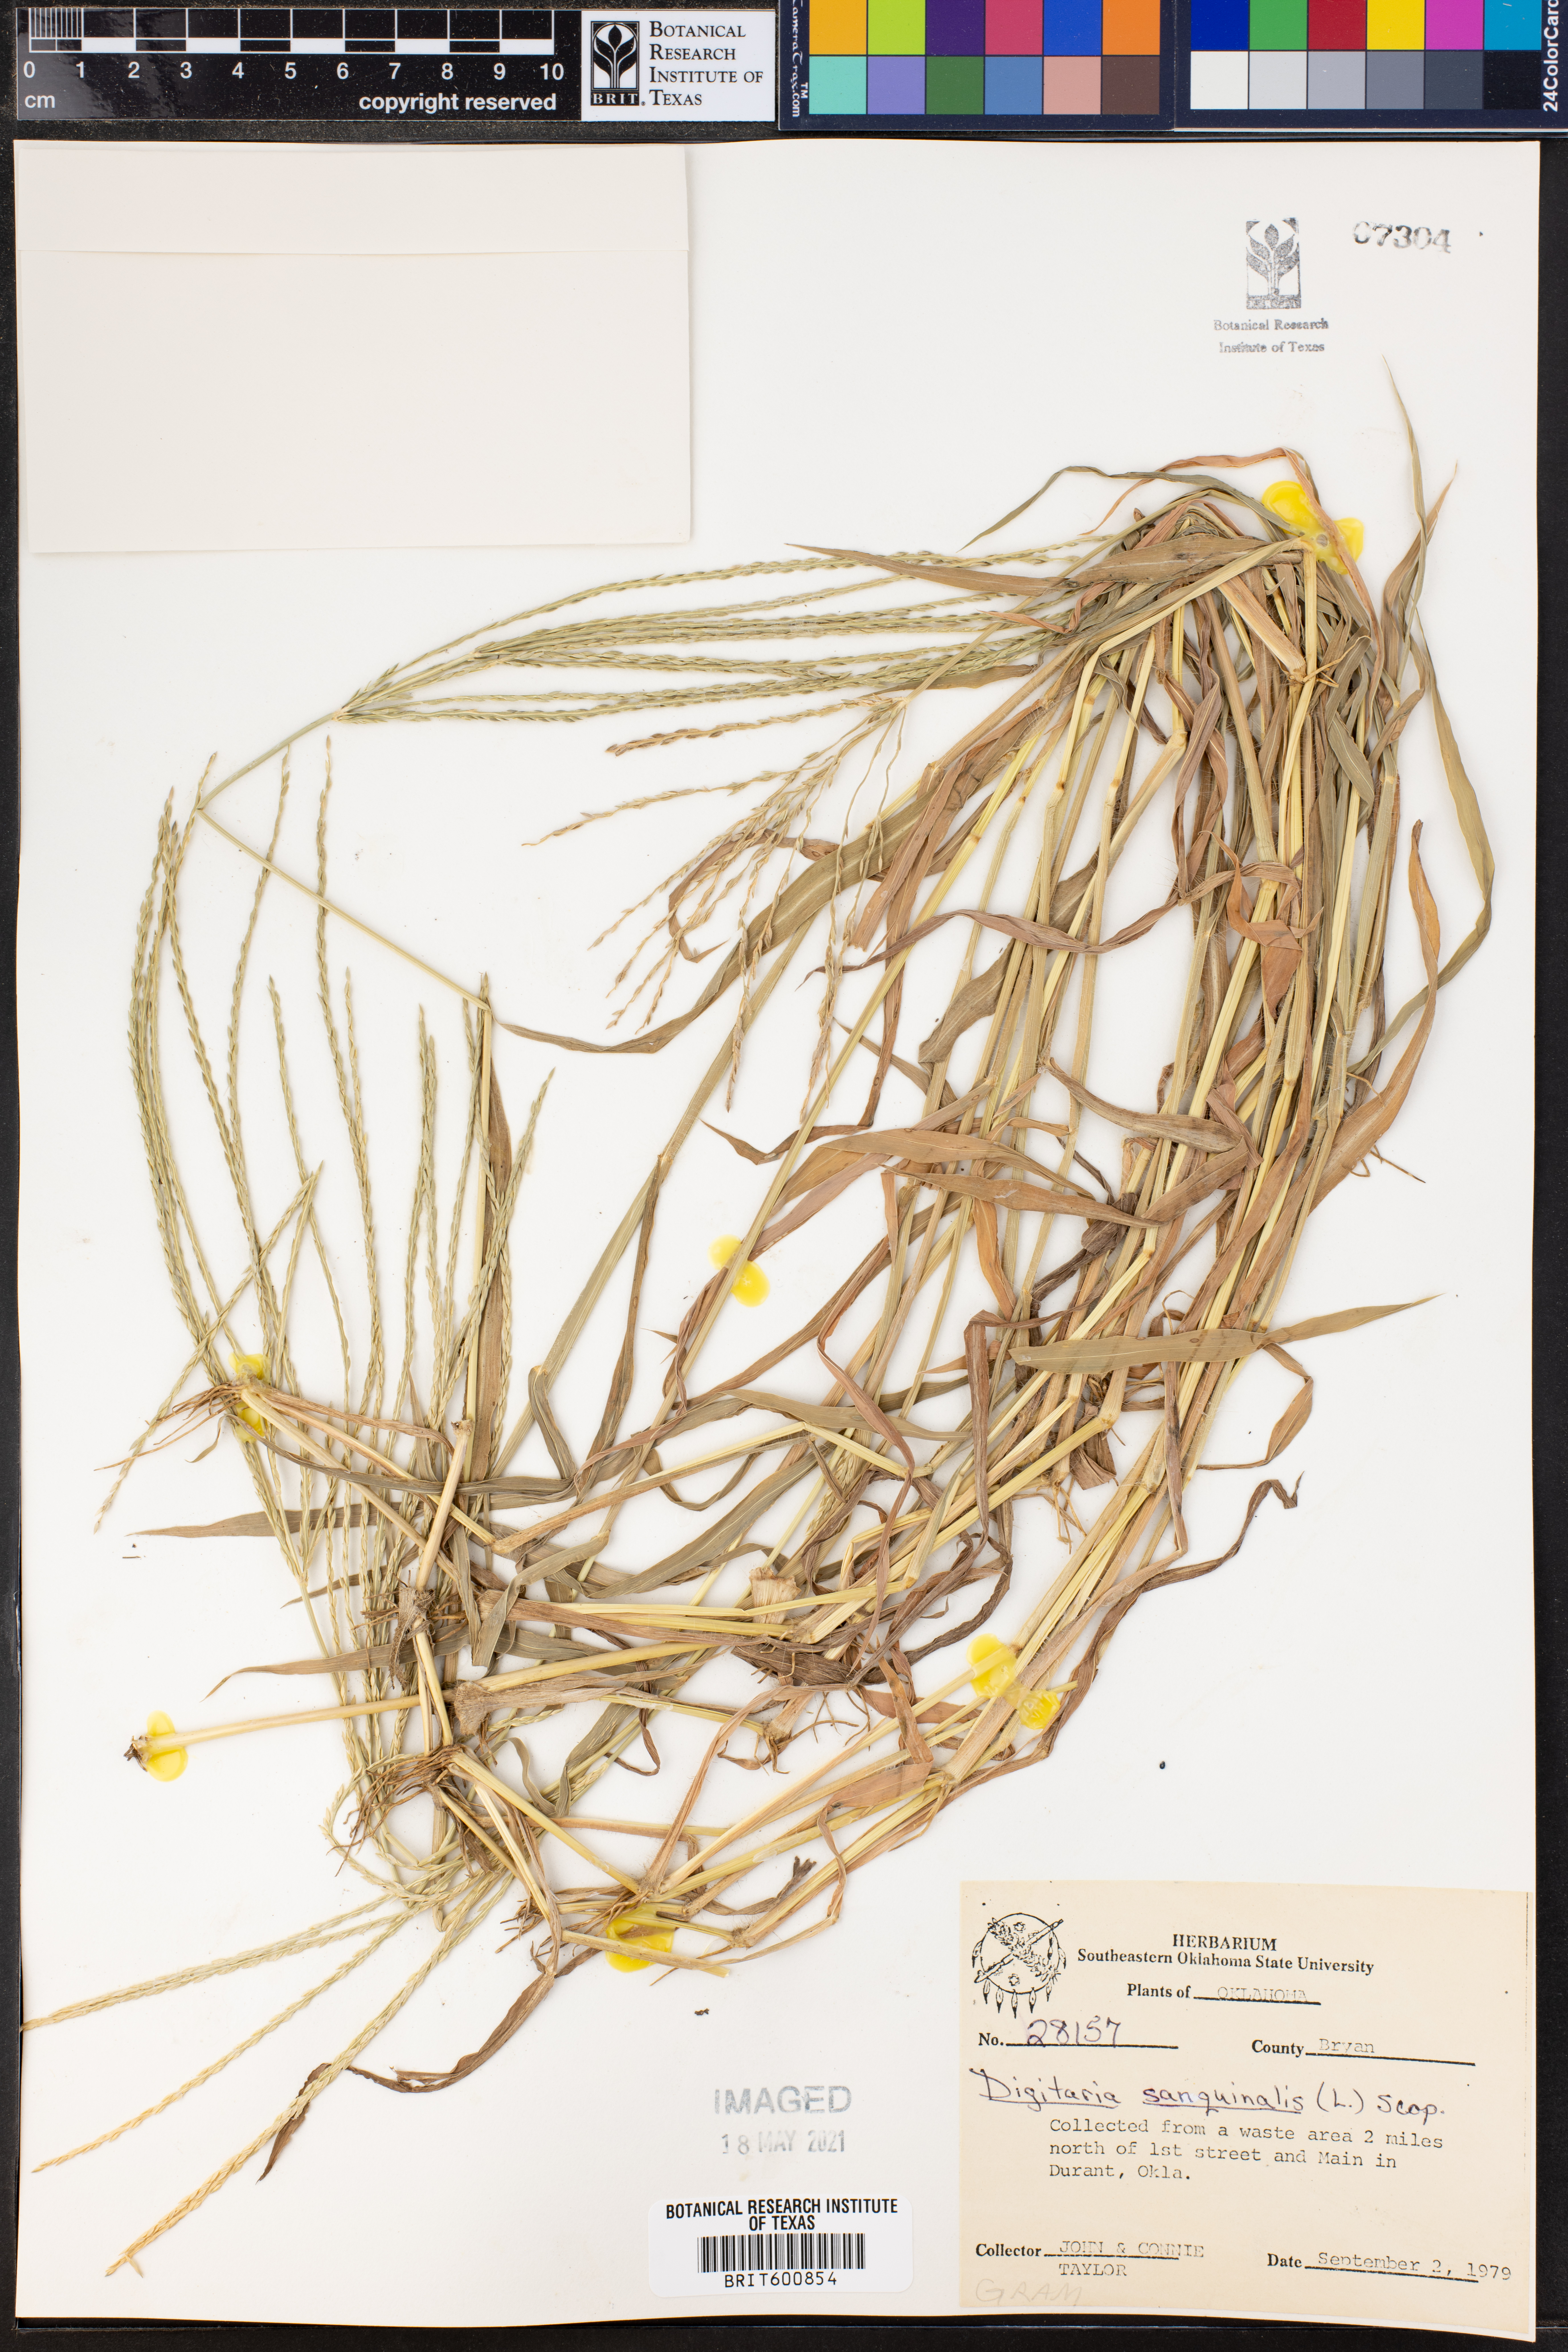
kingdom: Plantae
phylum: Tracheophyta
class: Liliopsida
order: Poales
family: Poaceae
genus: Digitaria
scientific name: Digitaria sanguinalis
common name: Hairy crabgrass
